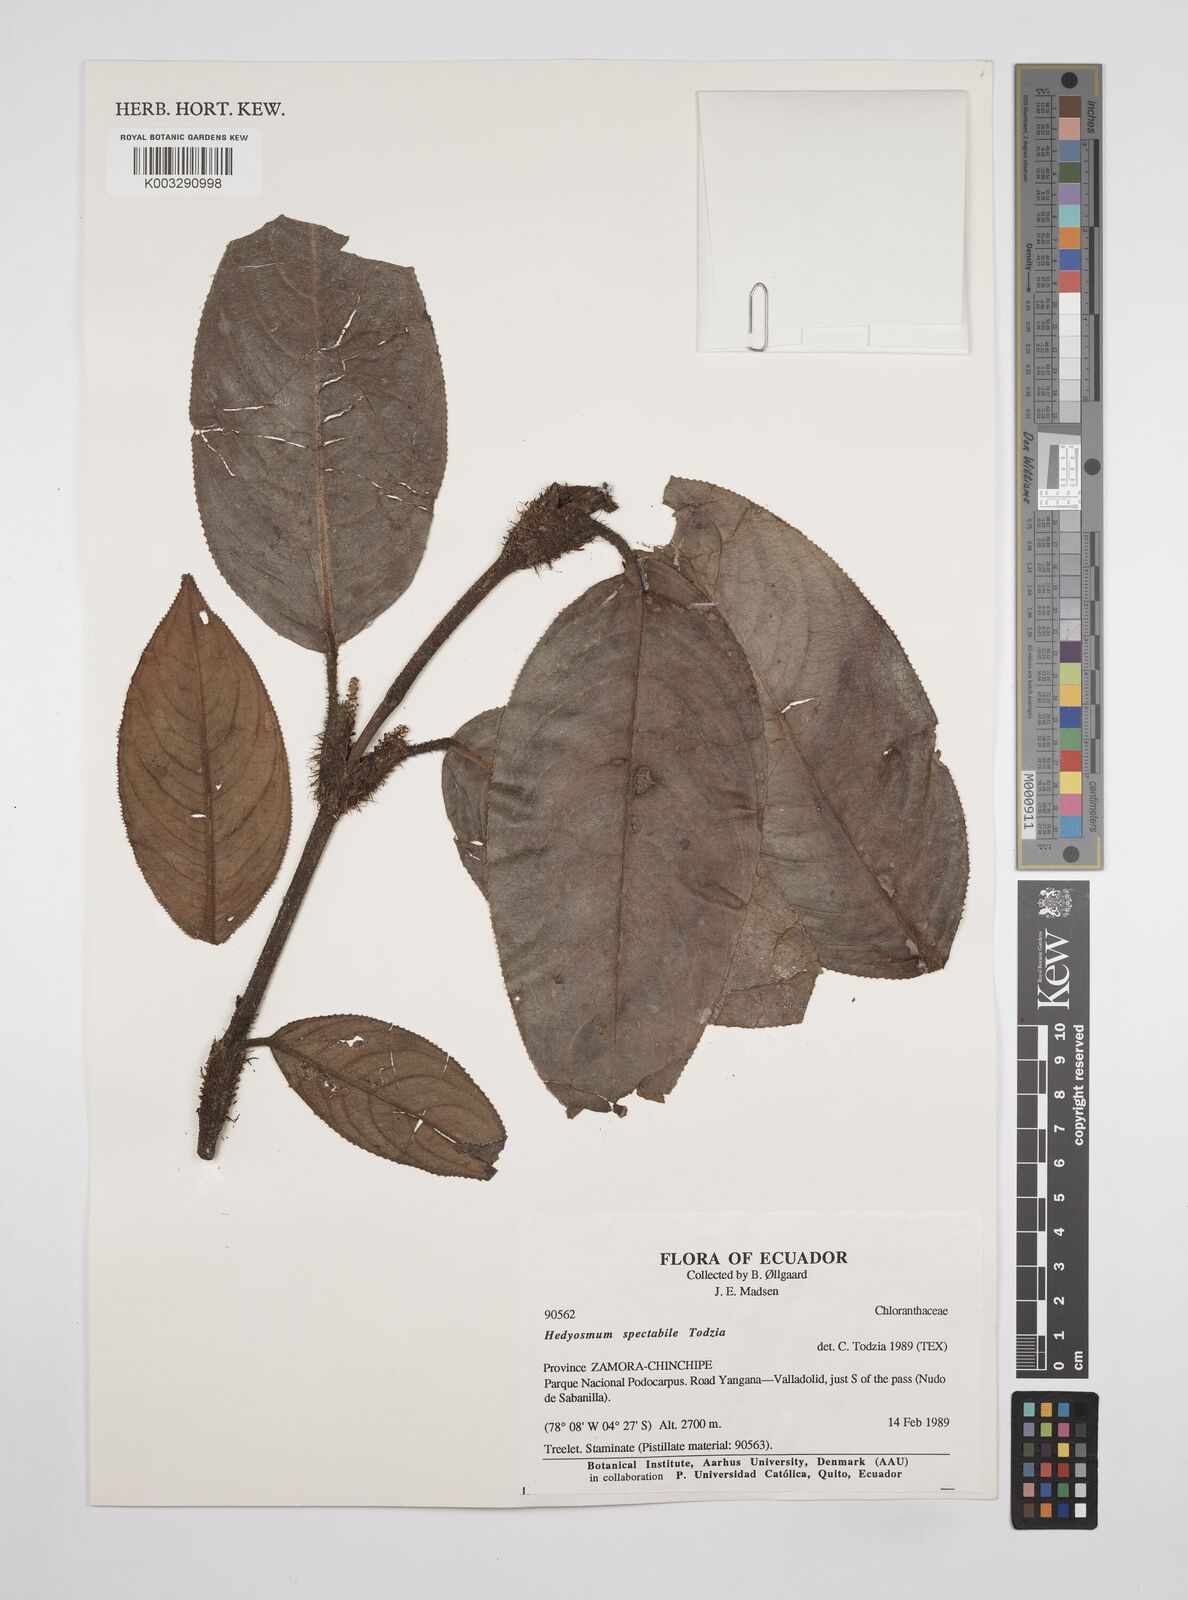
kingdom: Plantae
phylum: Tracheophyta
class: Magnoliopsida
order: Chloranthales
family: Chloranthaceae
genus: Hedyosmum
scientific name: Hedyosmum spectabile
